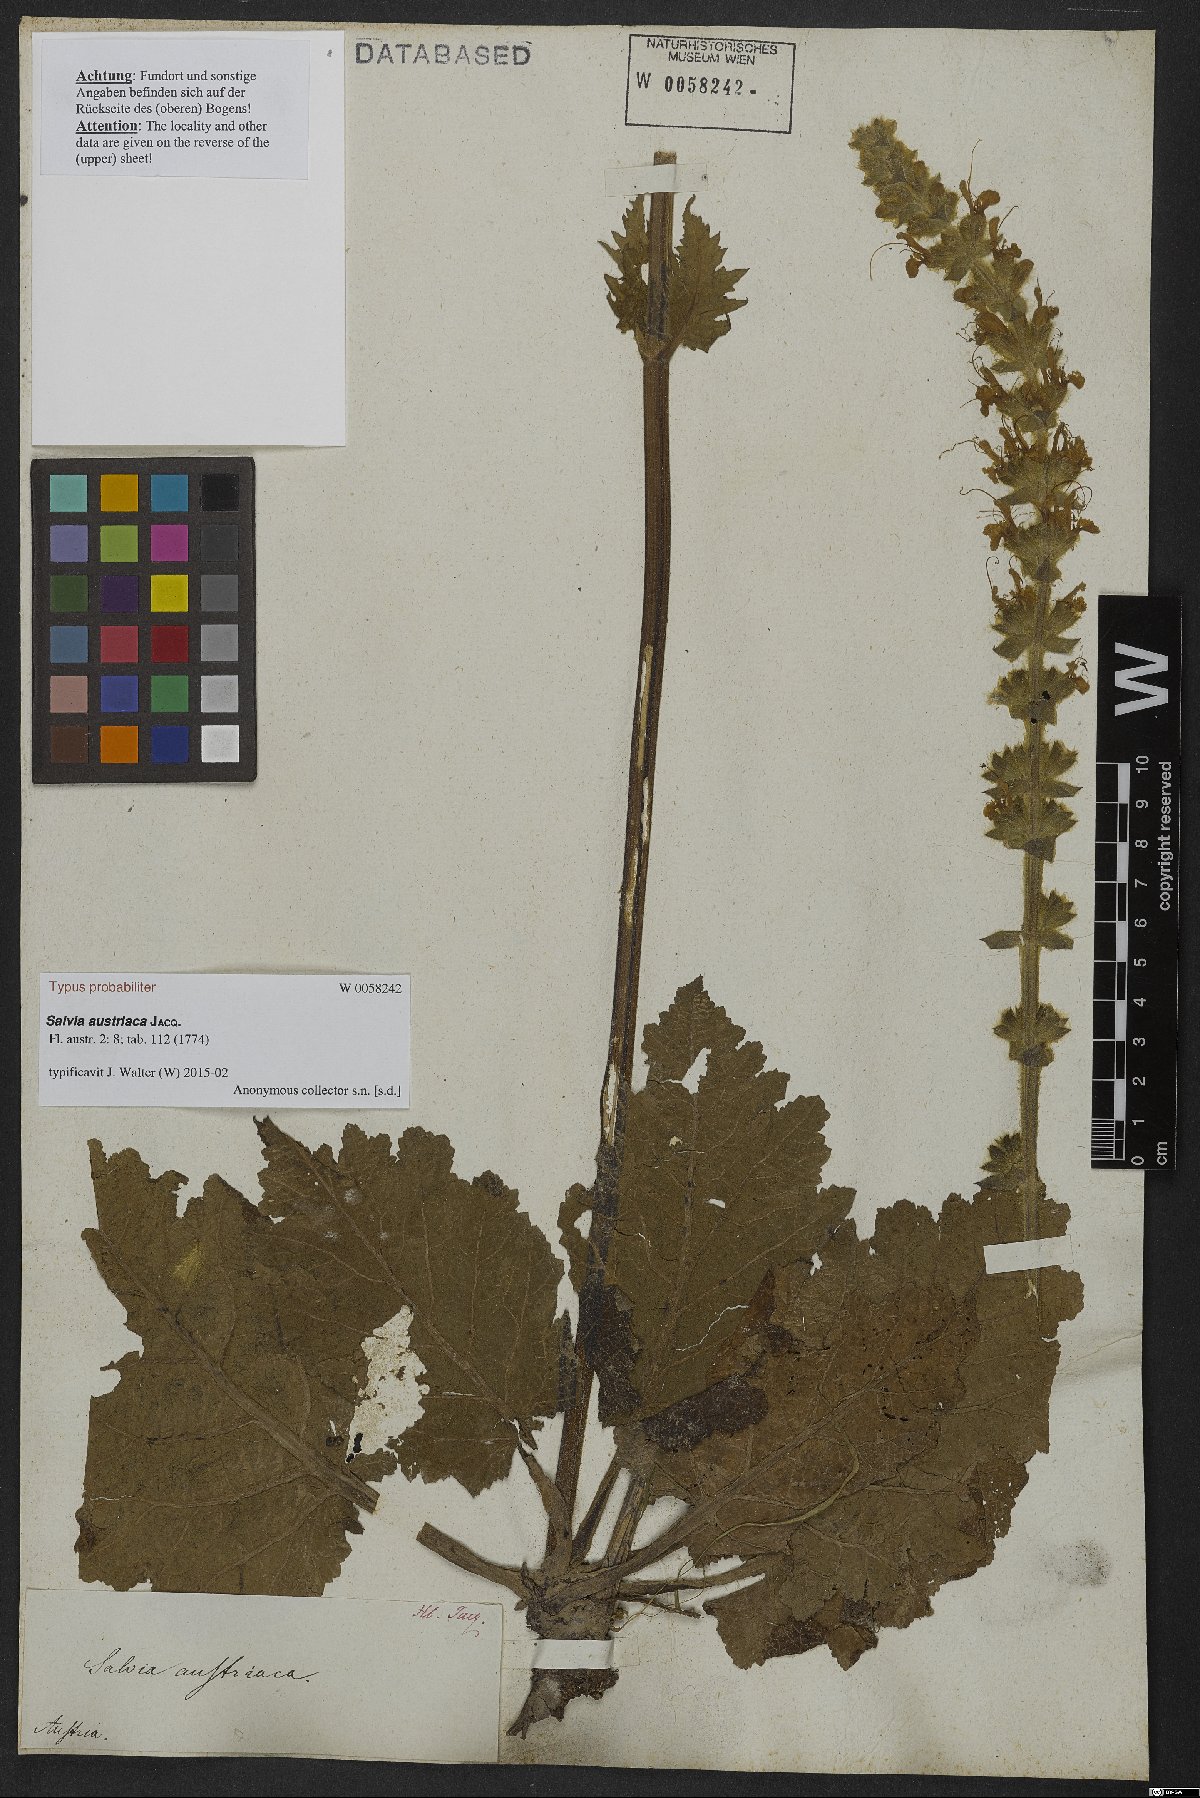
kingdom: Plantae
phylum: Tracheophyta
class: Magnoliopsida
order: Lamiales
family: Lamiaceae
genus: Salvia
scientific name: Salvia austriaca
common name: Austrian sage
